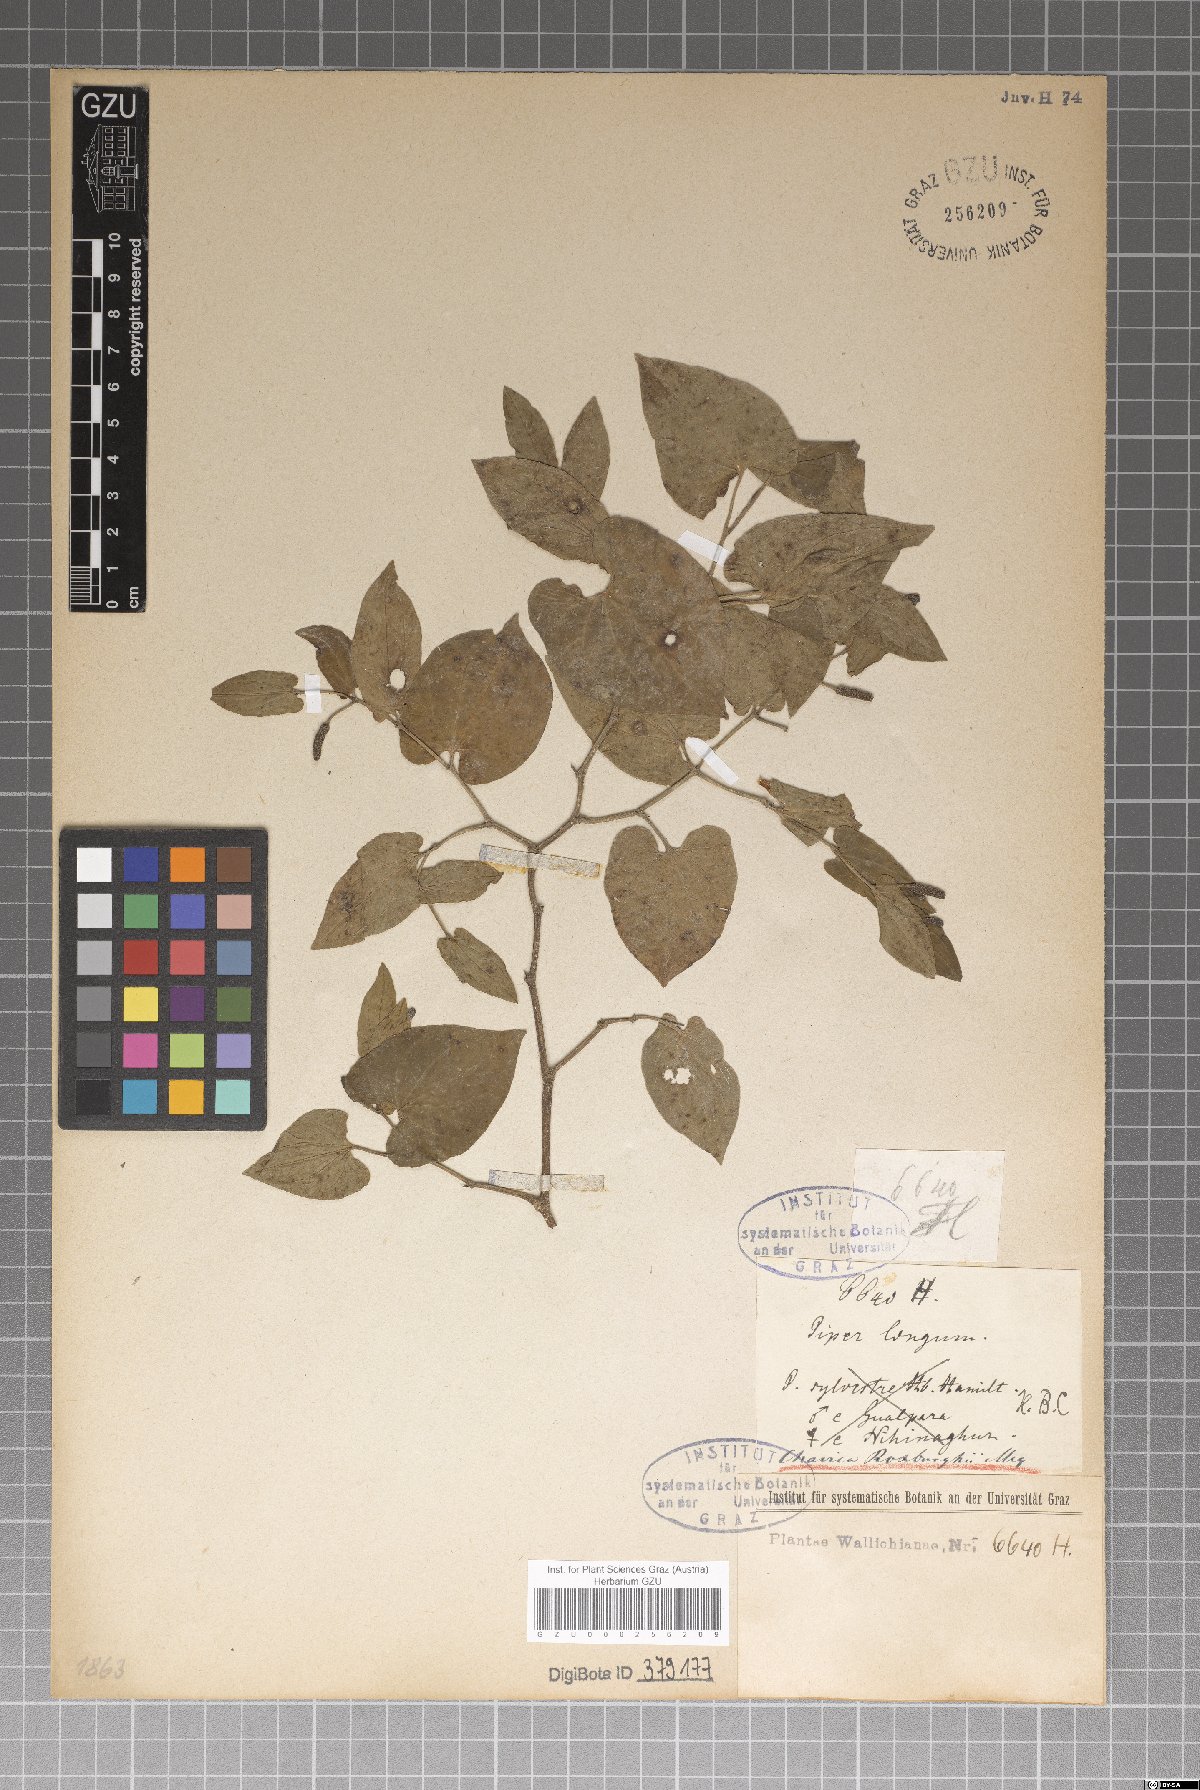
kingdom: Plantae
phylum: Tracheophyta
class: Magnoliopsida
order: Piperales
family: Piperaceae
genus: Piper
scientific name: Piper longum
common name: Long pepper
